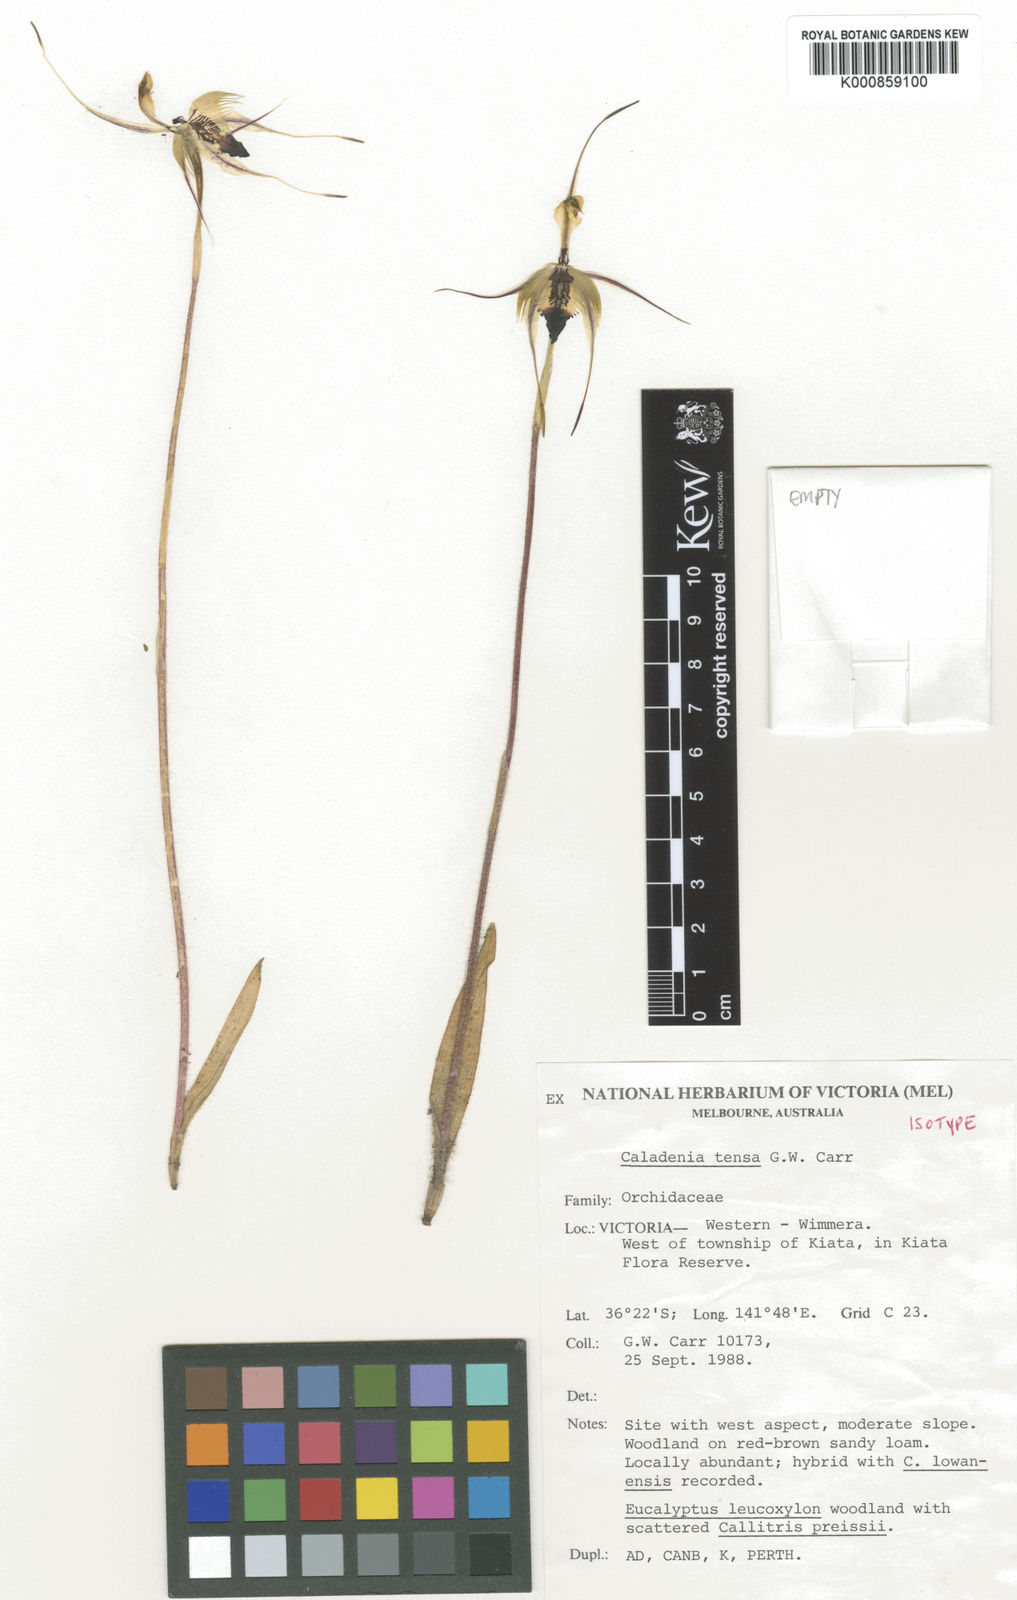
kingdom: Plantae
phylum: Tracheophyta
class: Liliopsida
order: Asparagales
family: Orchidaceae
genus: Caladenia
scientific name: Caladenia tensa
